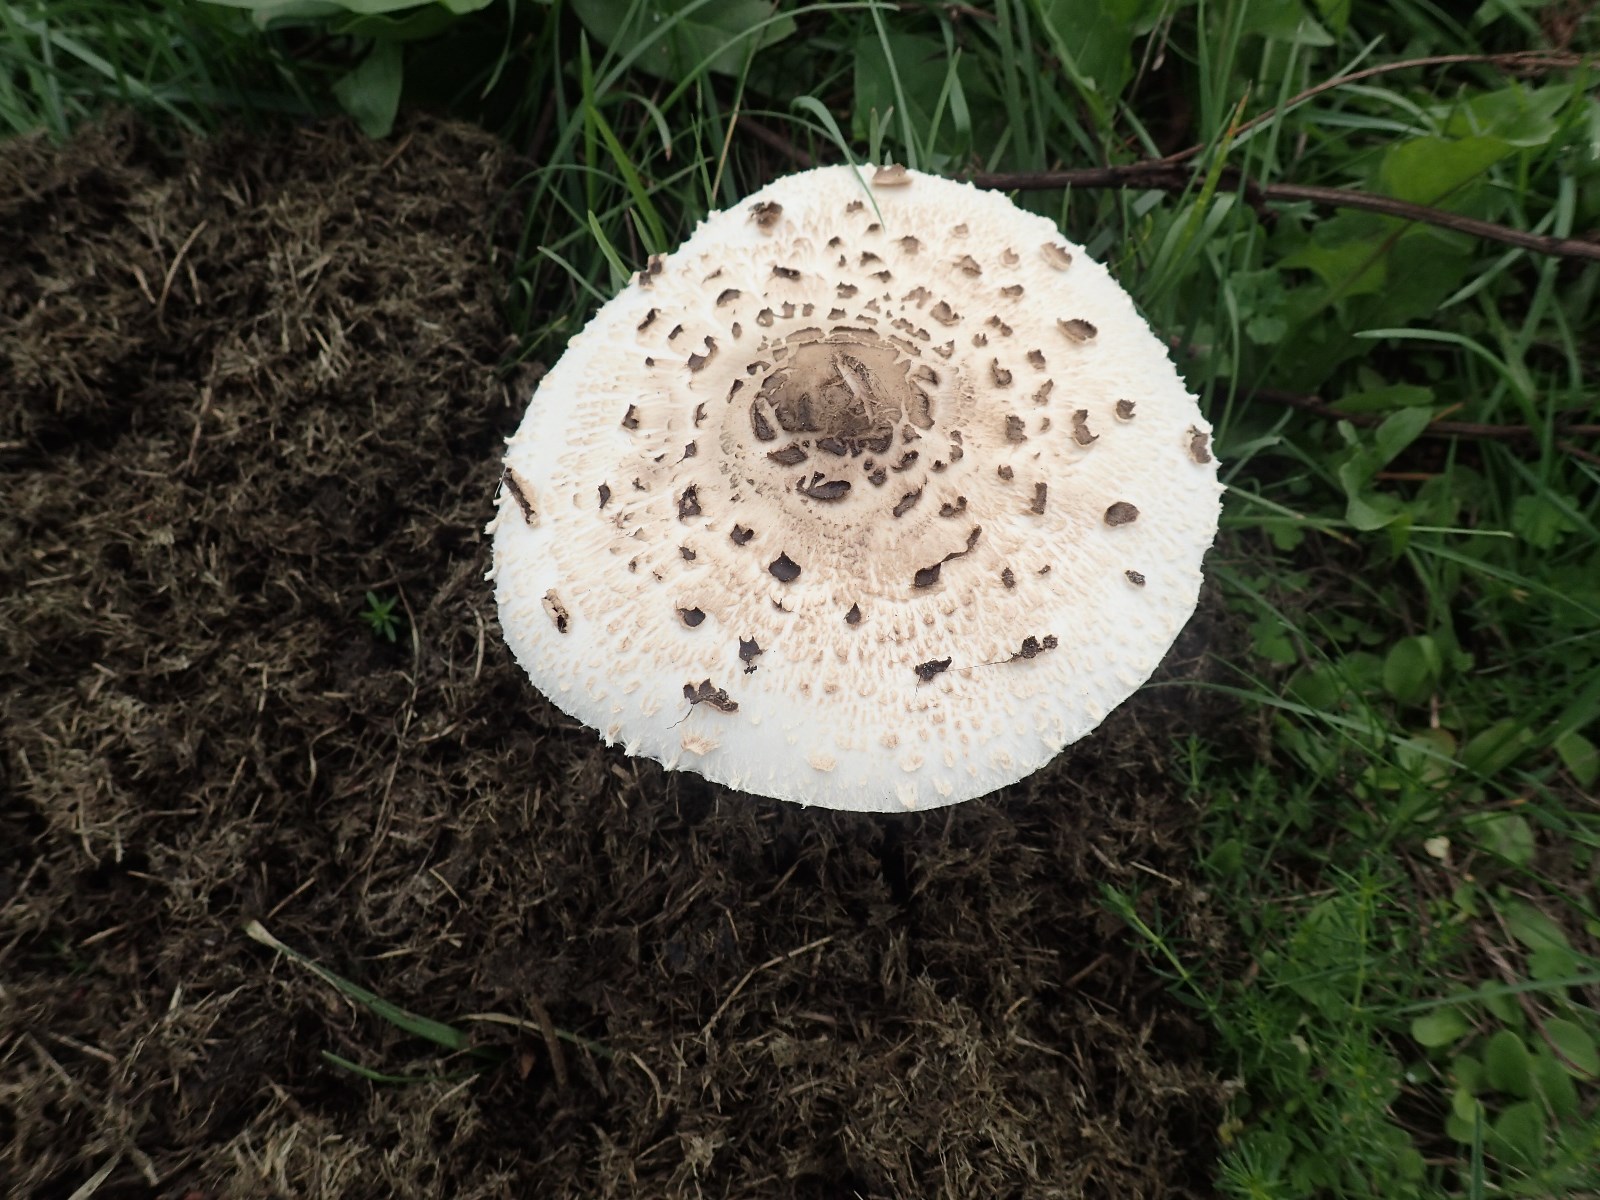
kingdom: Fungi
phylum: Basidiomycota
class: Agaricomycetes
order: Agaricales
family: Agaricaceae
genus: Macrolepiota
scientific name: Macrolepiota
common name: kæmpeparasolhat
